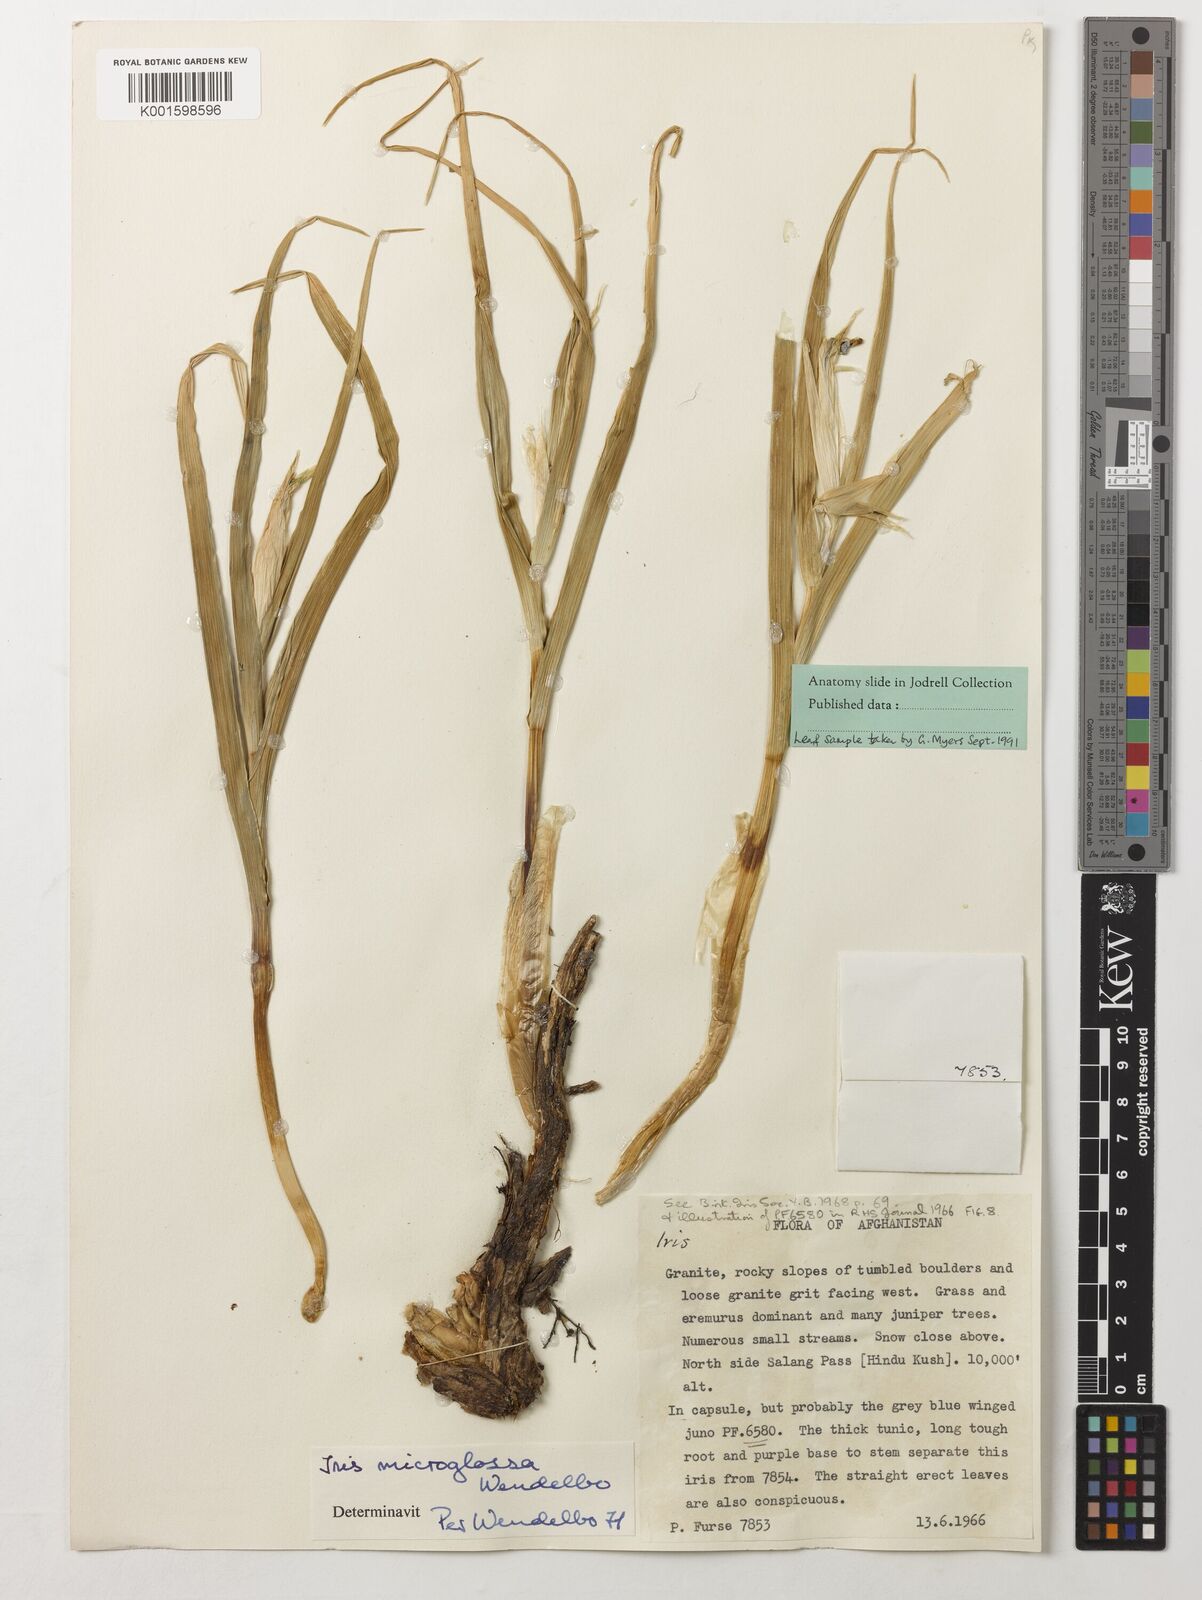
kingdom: Plantae
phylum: Tracheophyta
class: Liliopsida
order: Asparagales
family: Iridaceae
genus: Iris
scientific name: Iris microglossa
